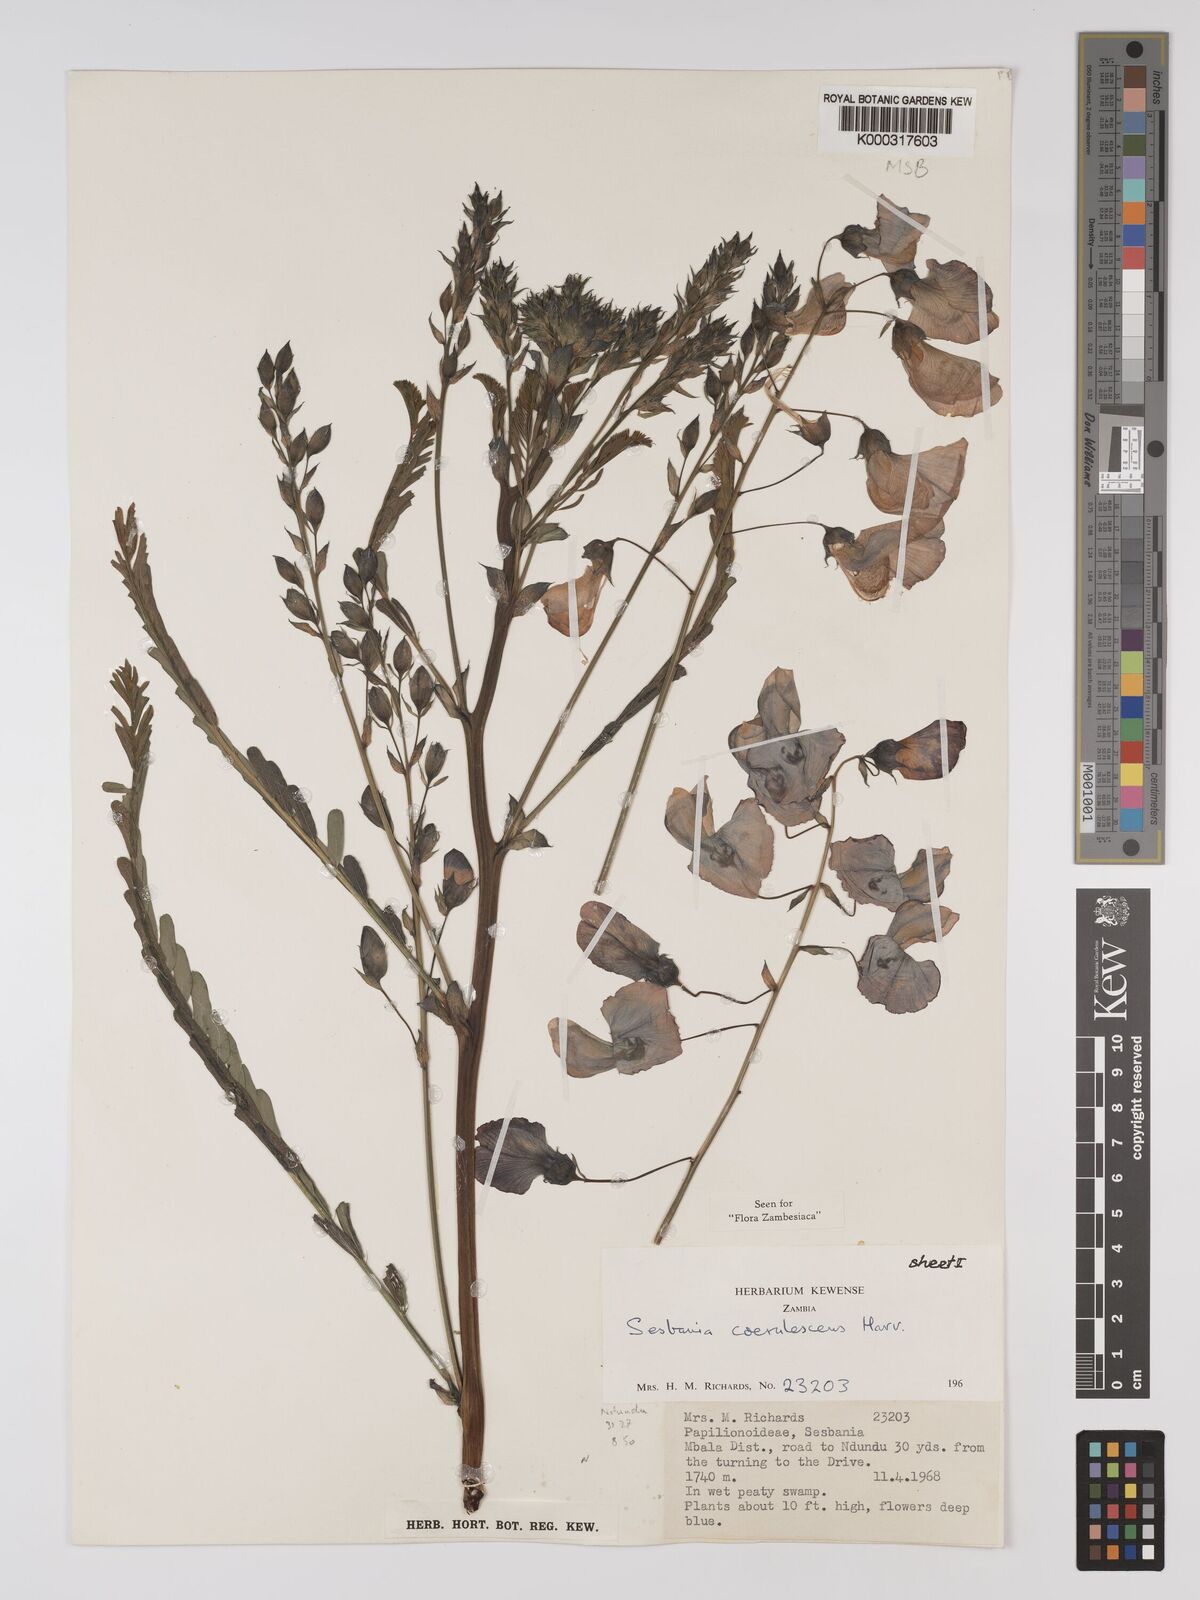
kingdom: Plantae
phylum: Tracheophyta
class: Magnoliopsida
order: Fabales
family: Fabaceae
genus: Sesbania
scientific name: Sesbania coerulescens
